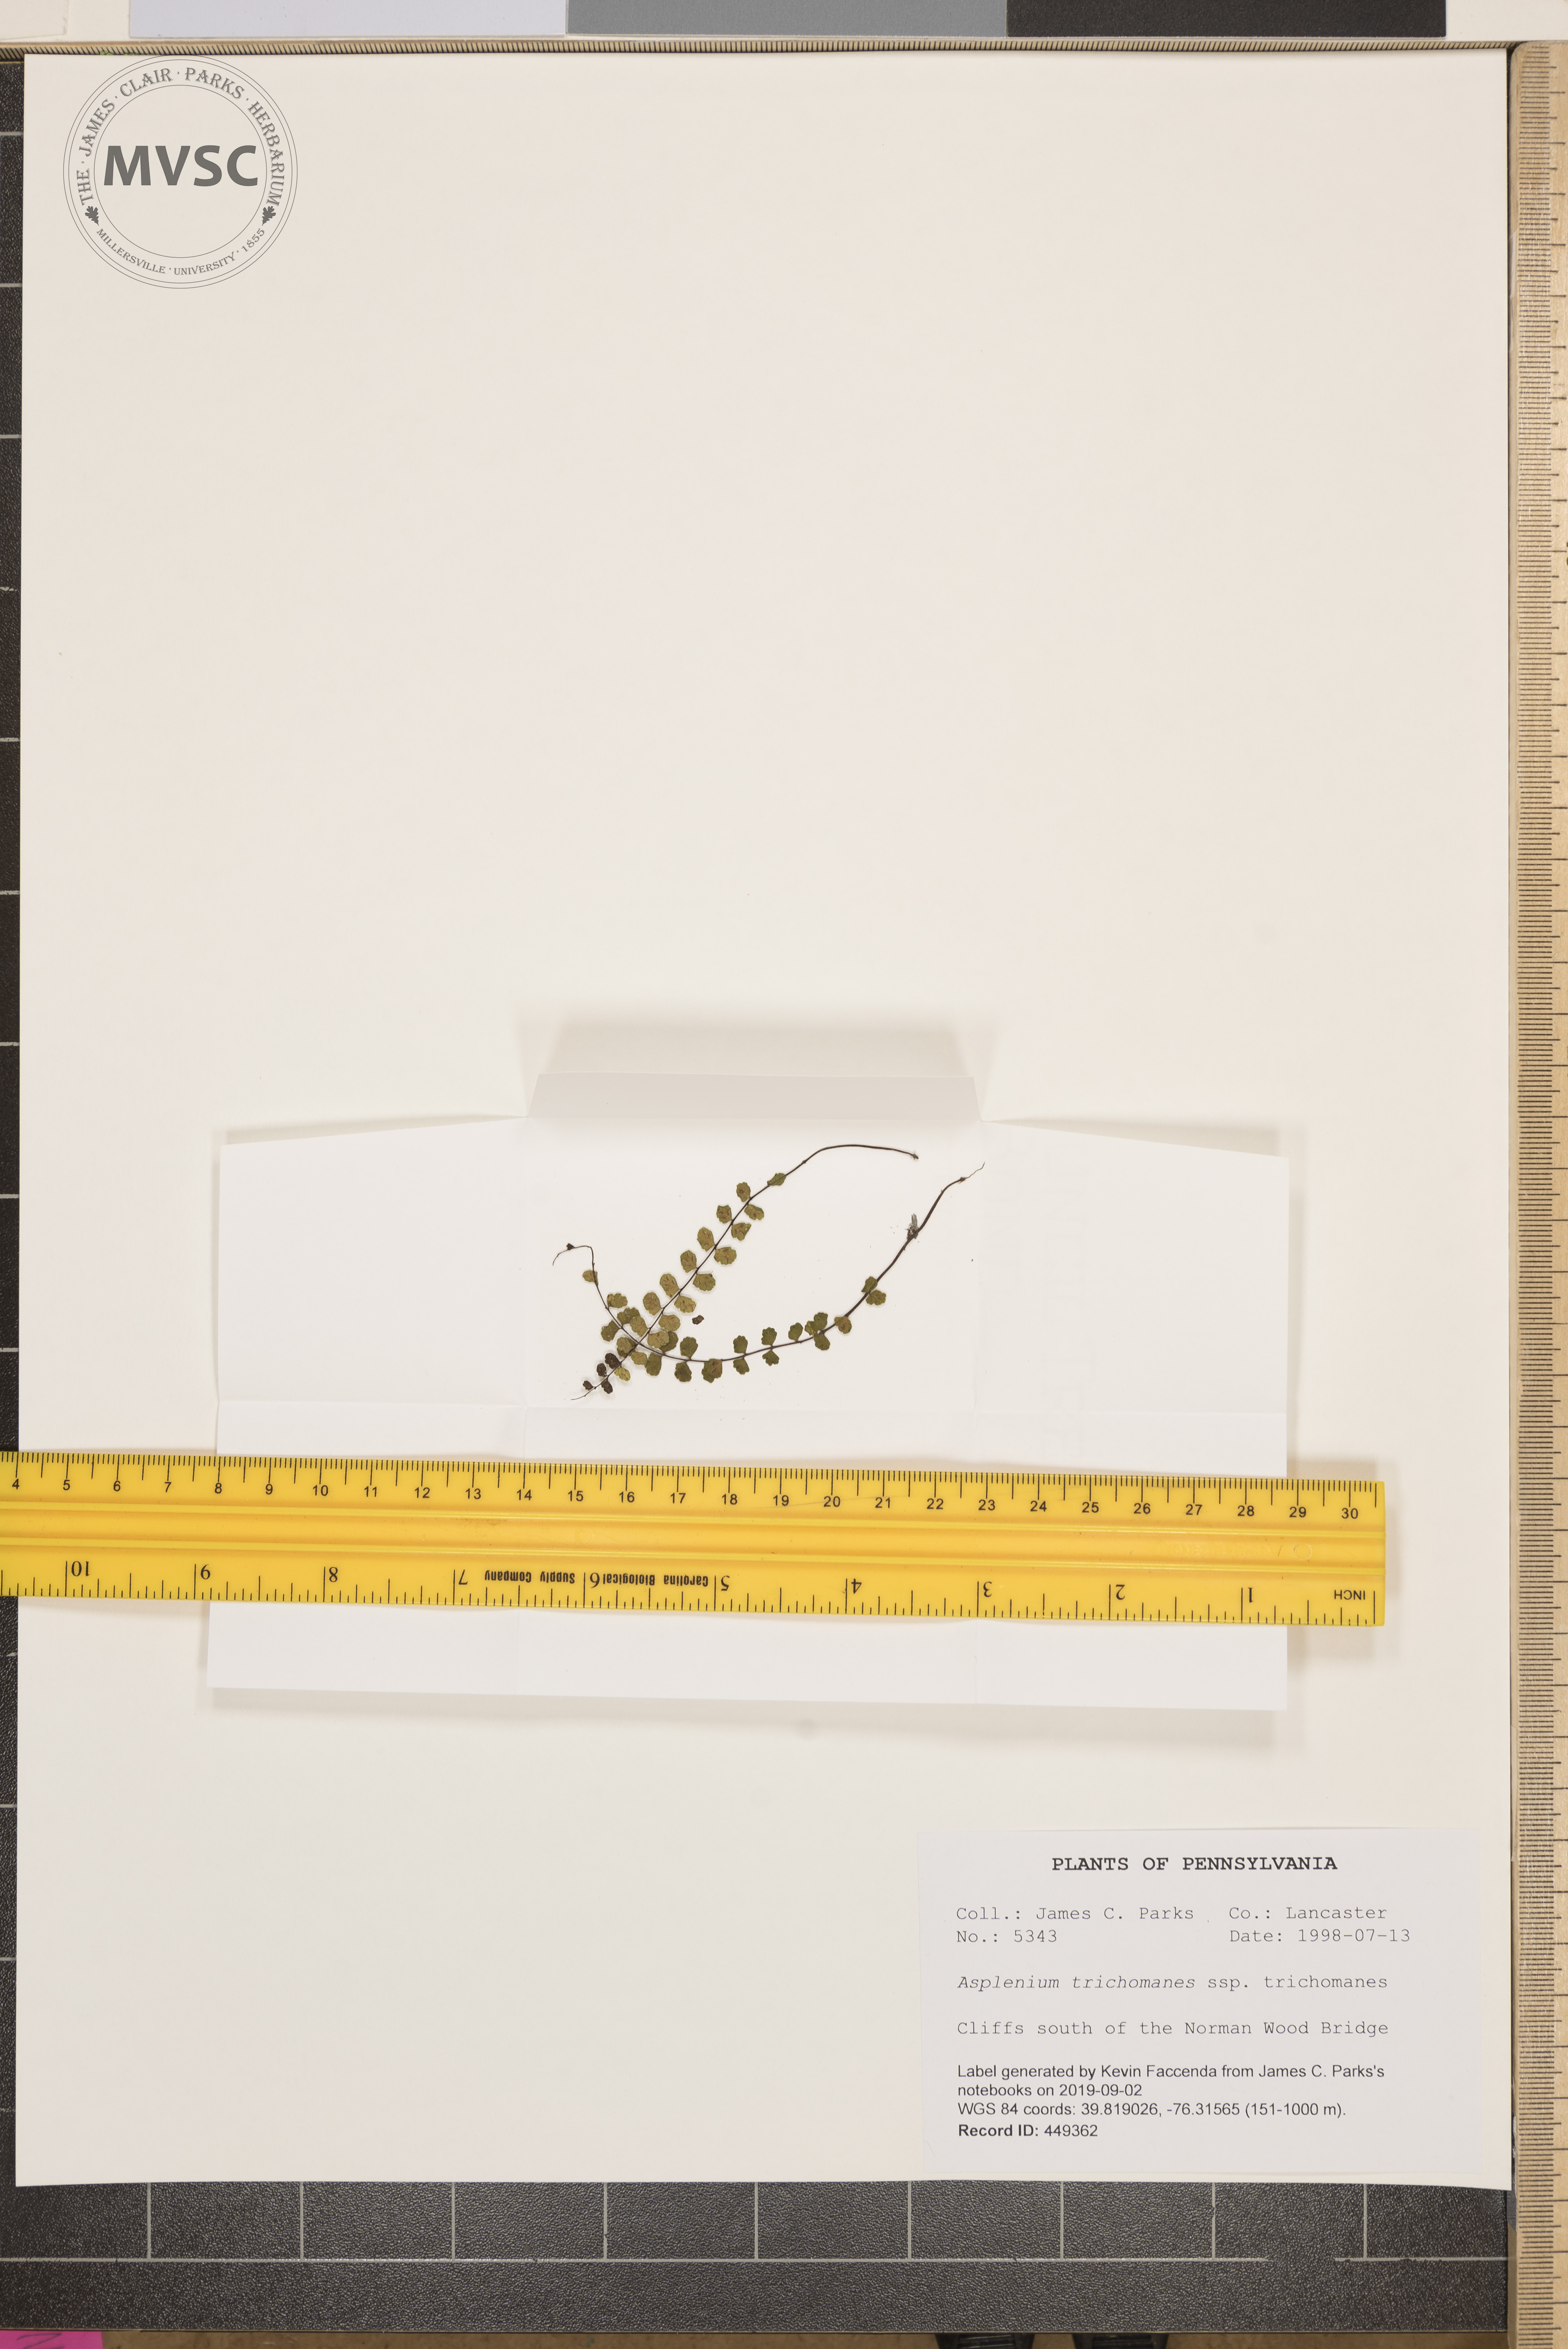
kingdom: Plantae
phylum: Tracheophyta
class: Polypodiopsida
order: Polypodiales
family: Aspleniaceae
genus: Asplenium
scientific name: Asplenium trichomanes
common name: Maidenhair spleenwort
